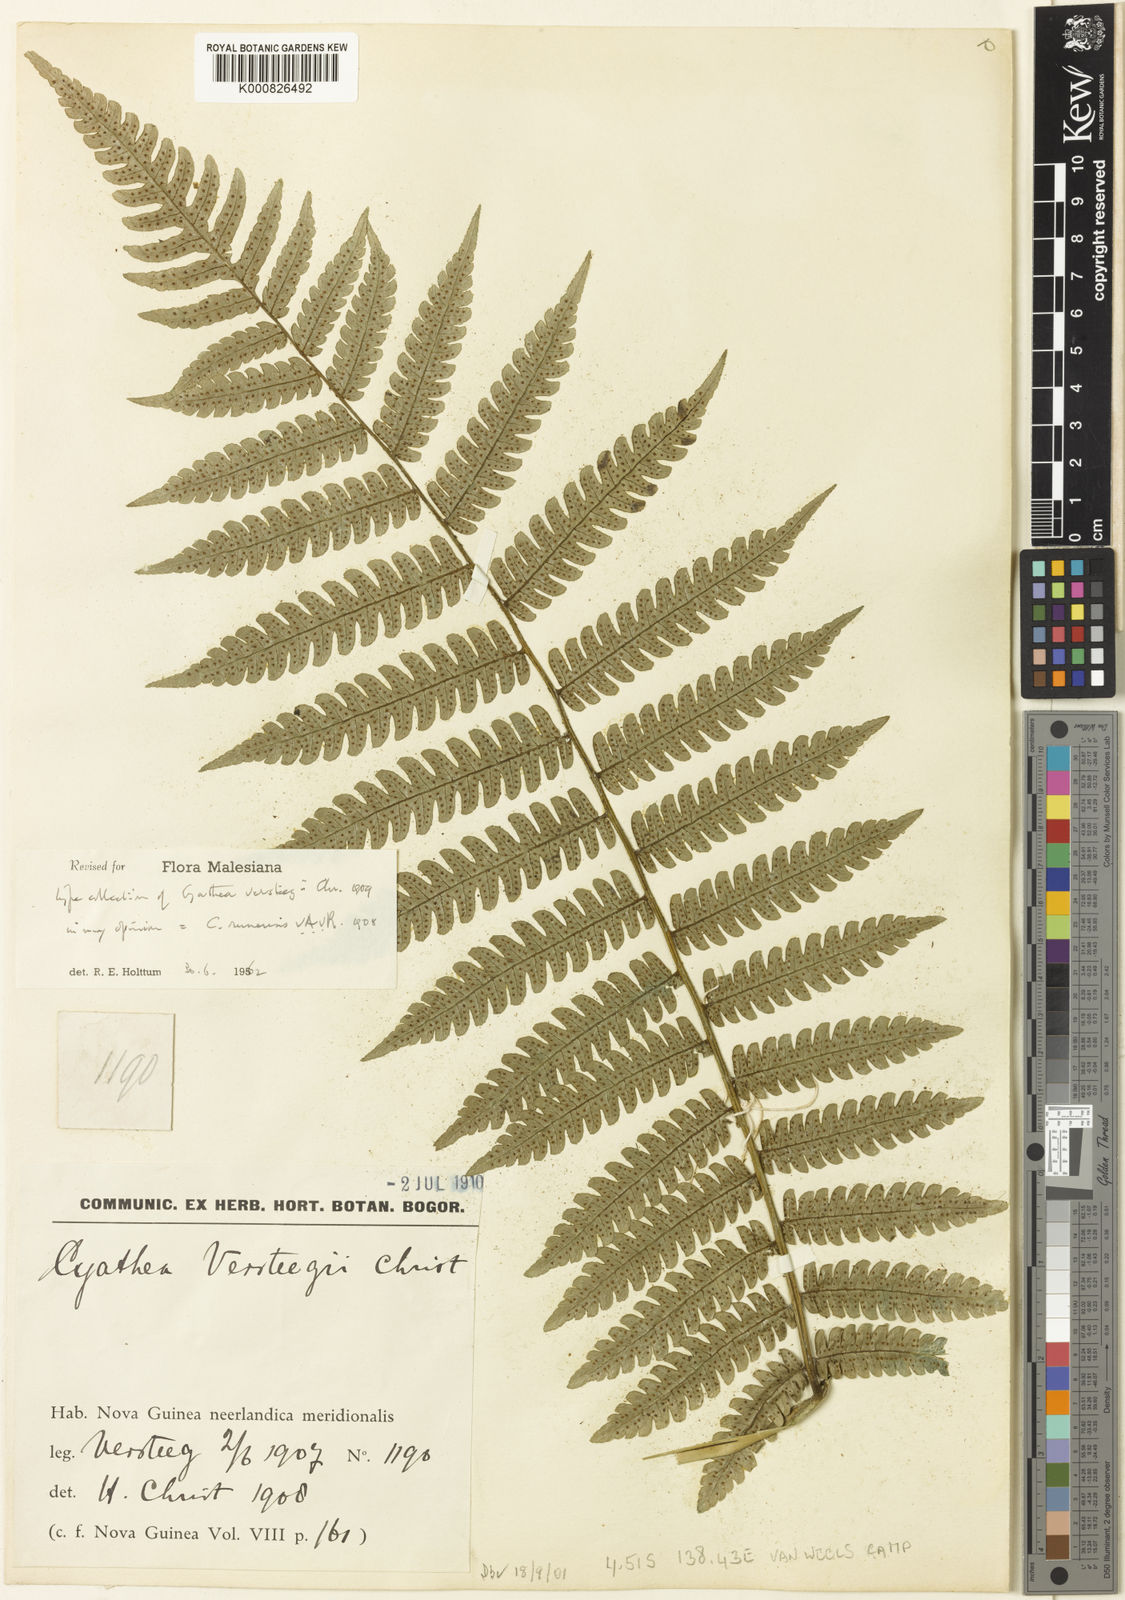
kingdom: Plantae
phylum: Tracheophyta
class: Polypodiopsida
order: Cyatheales
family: Cyatheaceae
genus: Sphaeropteris
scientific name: Sphaeropteris runensis
